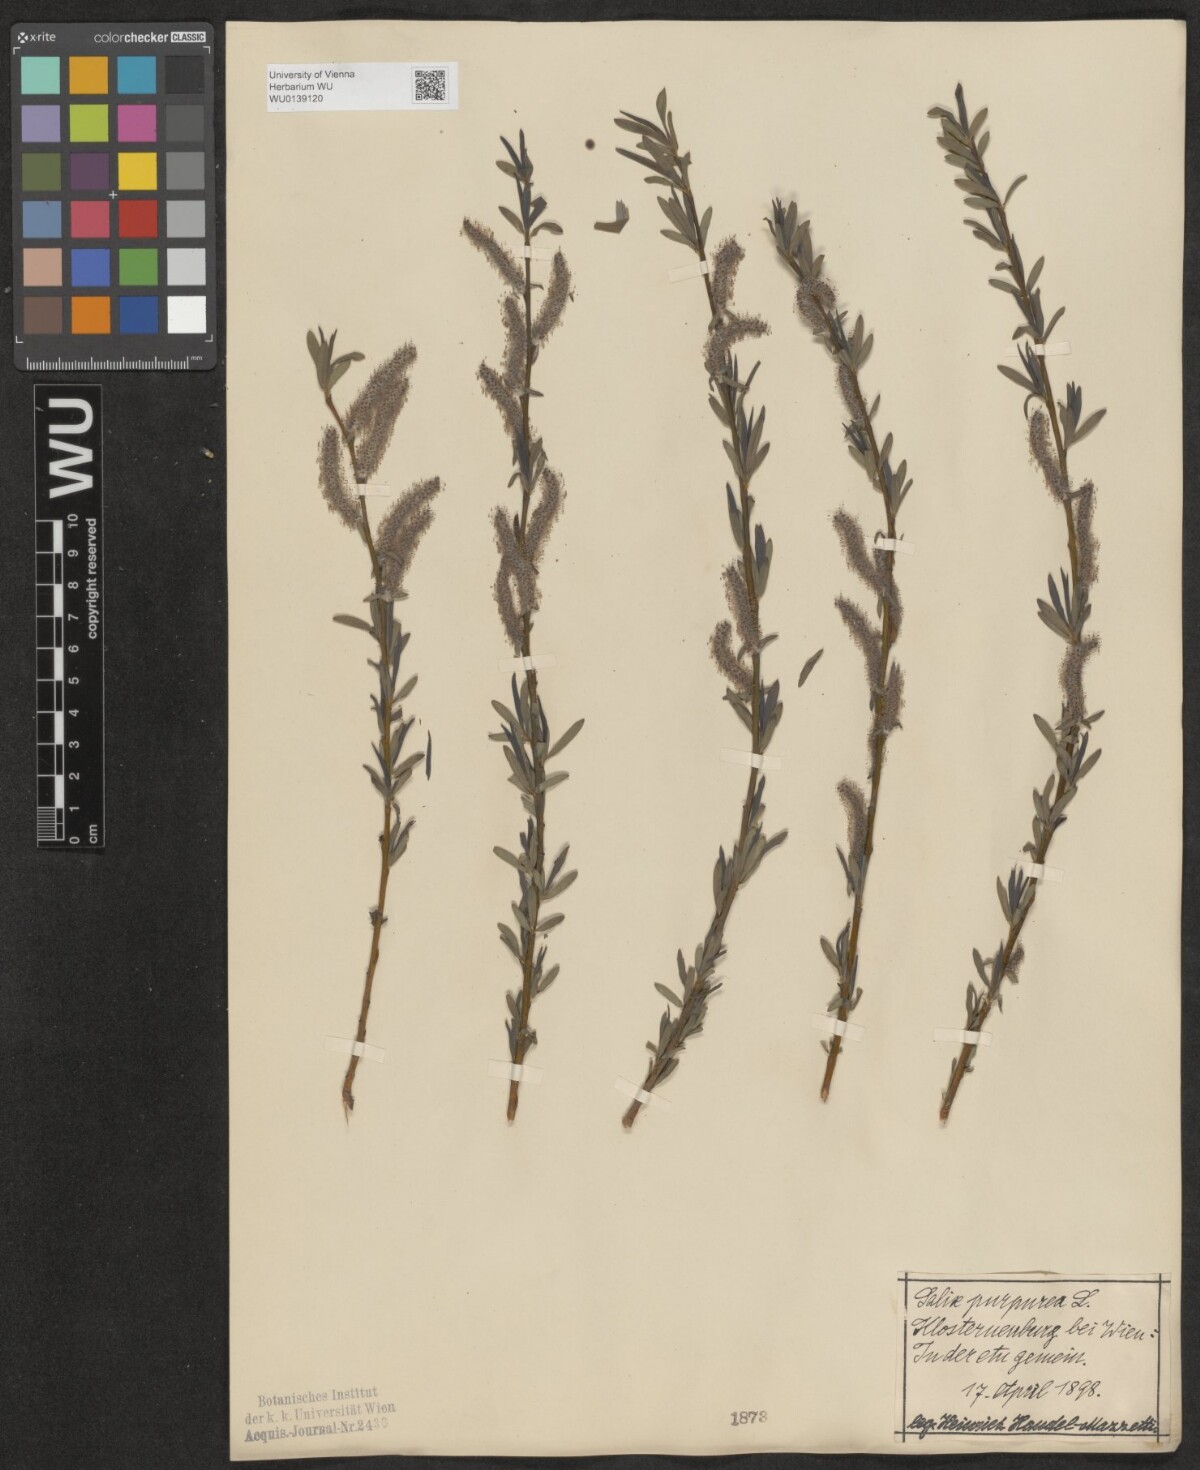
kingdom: Plantae
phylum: Tracheophyta
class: Magnoliopsida
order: Malpighiales
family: Salicaceae
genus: Salix
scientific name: Salix purpurea
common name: Purple willow
